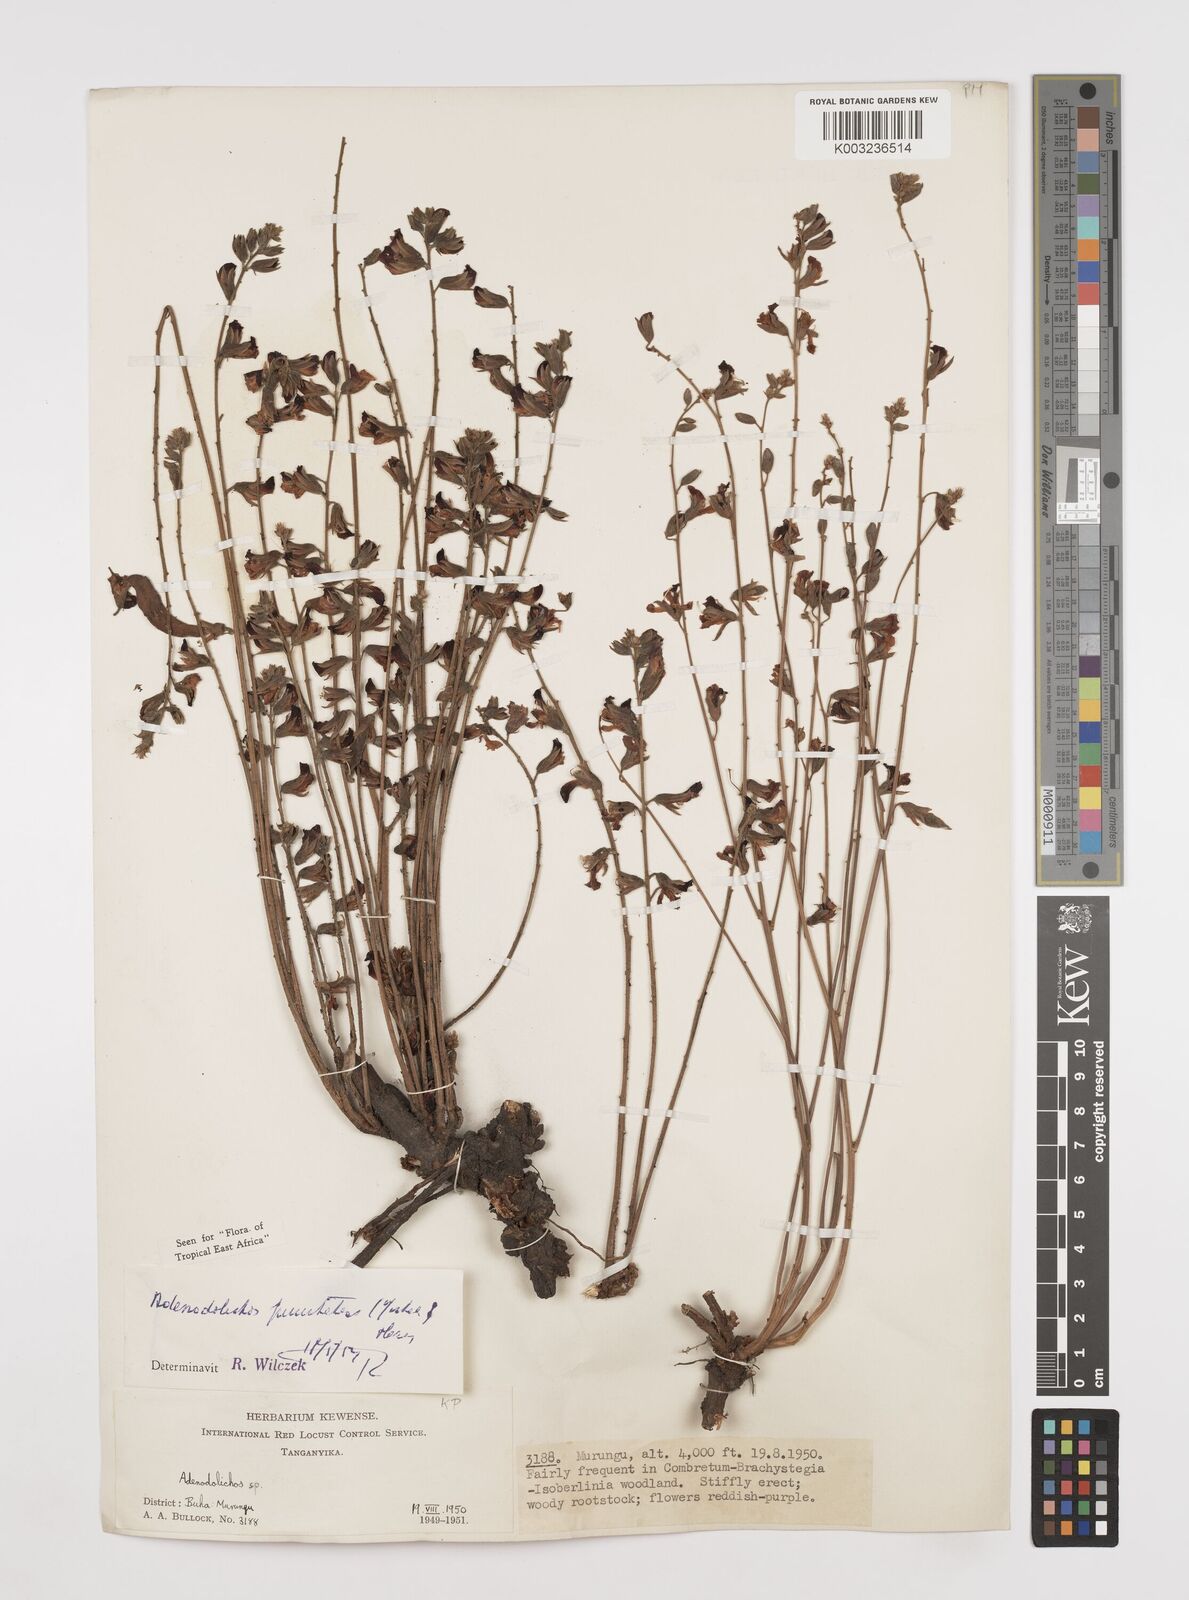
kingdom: Plantae
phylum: Tracheophyta
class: Magnoliopsida
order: Fabales
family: Fabaceae
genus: Adenodolichos
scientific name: Adenodolichos punctatus
